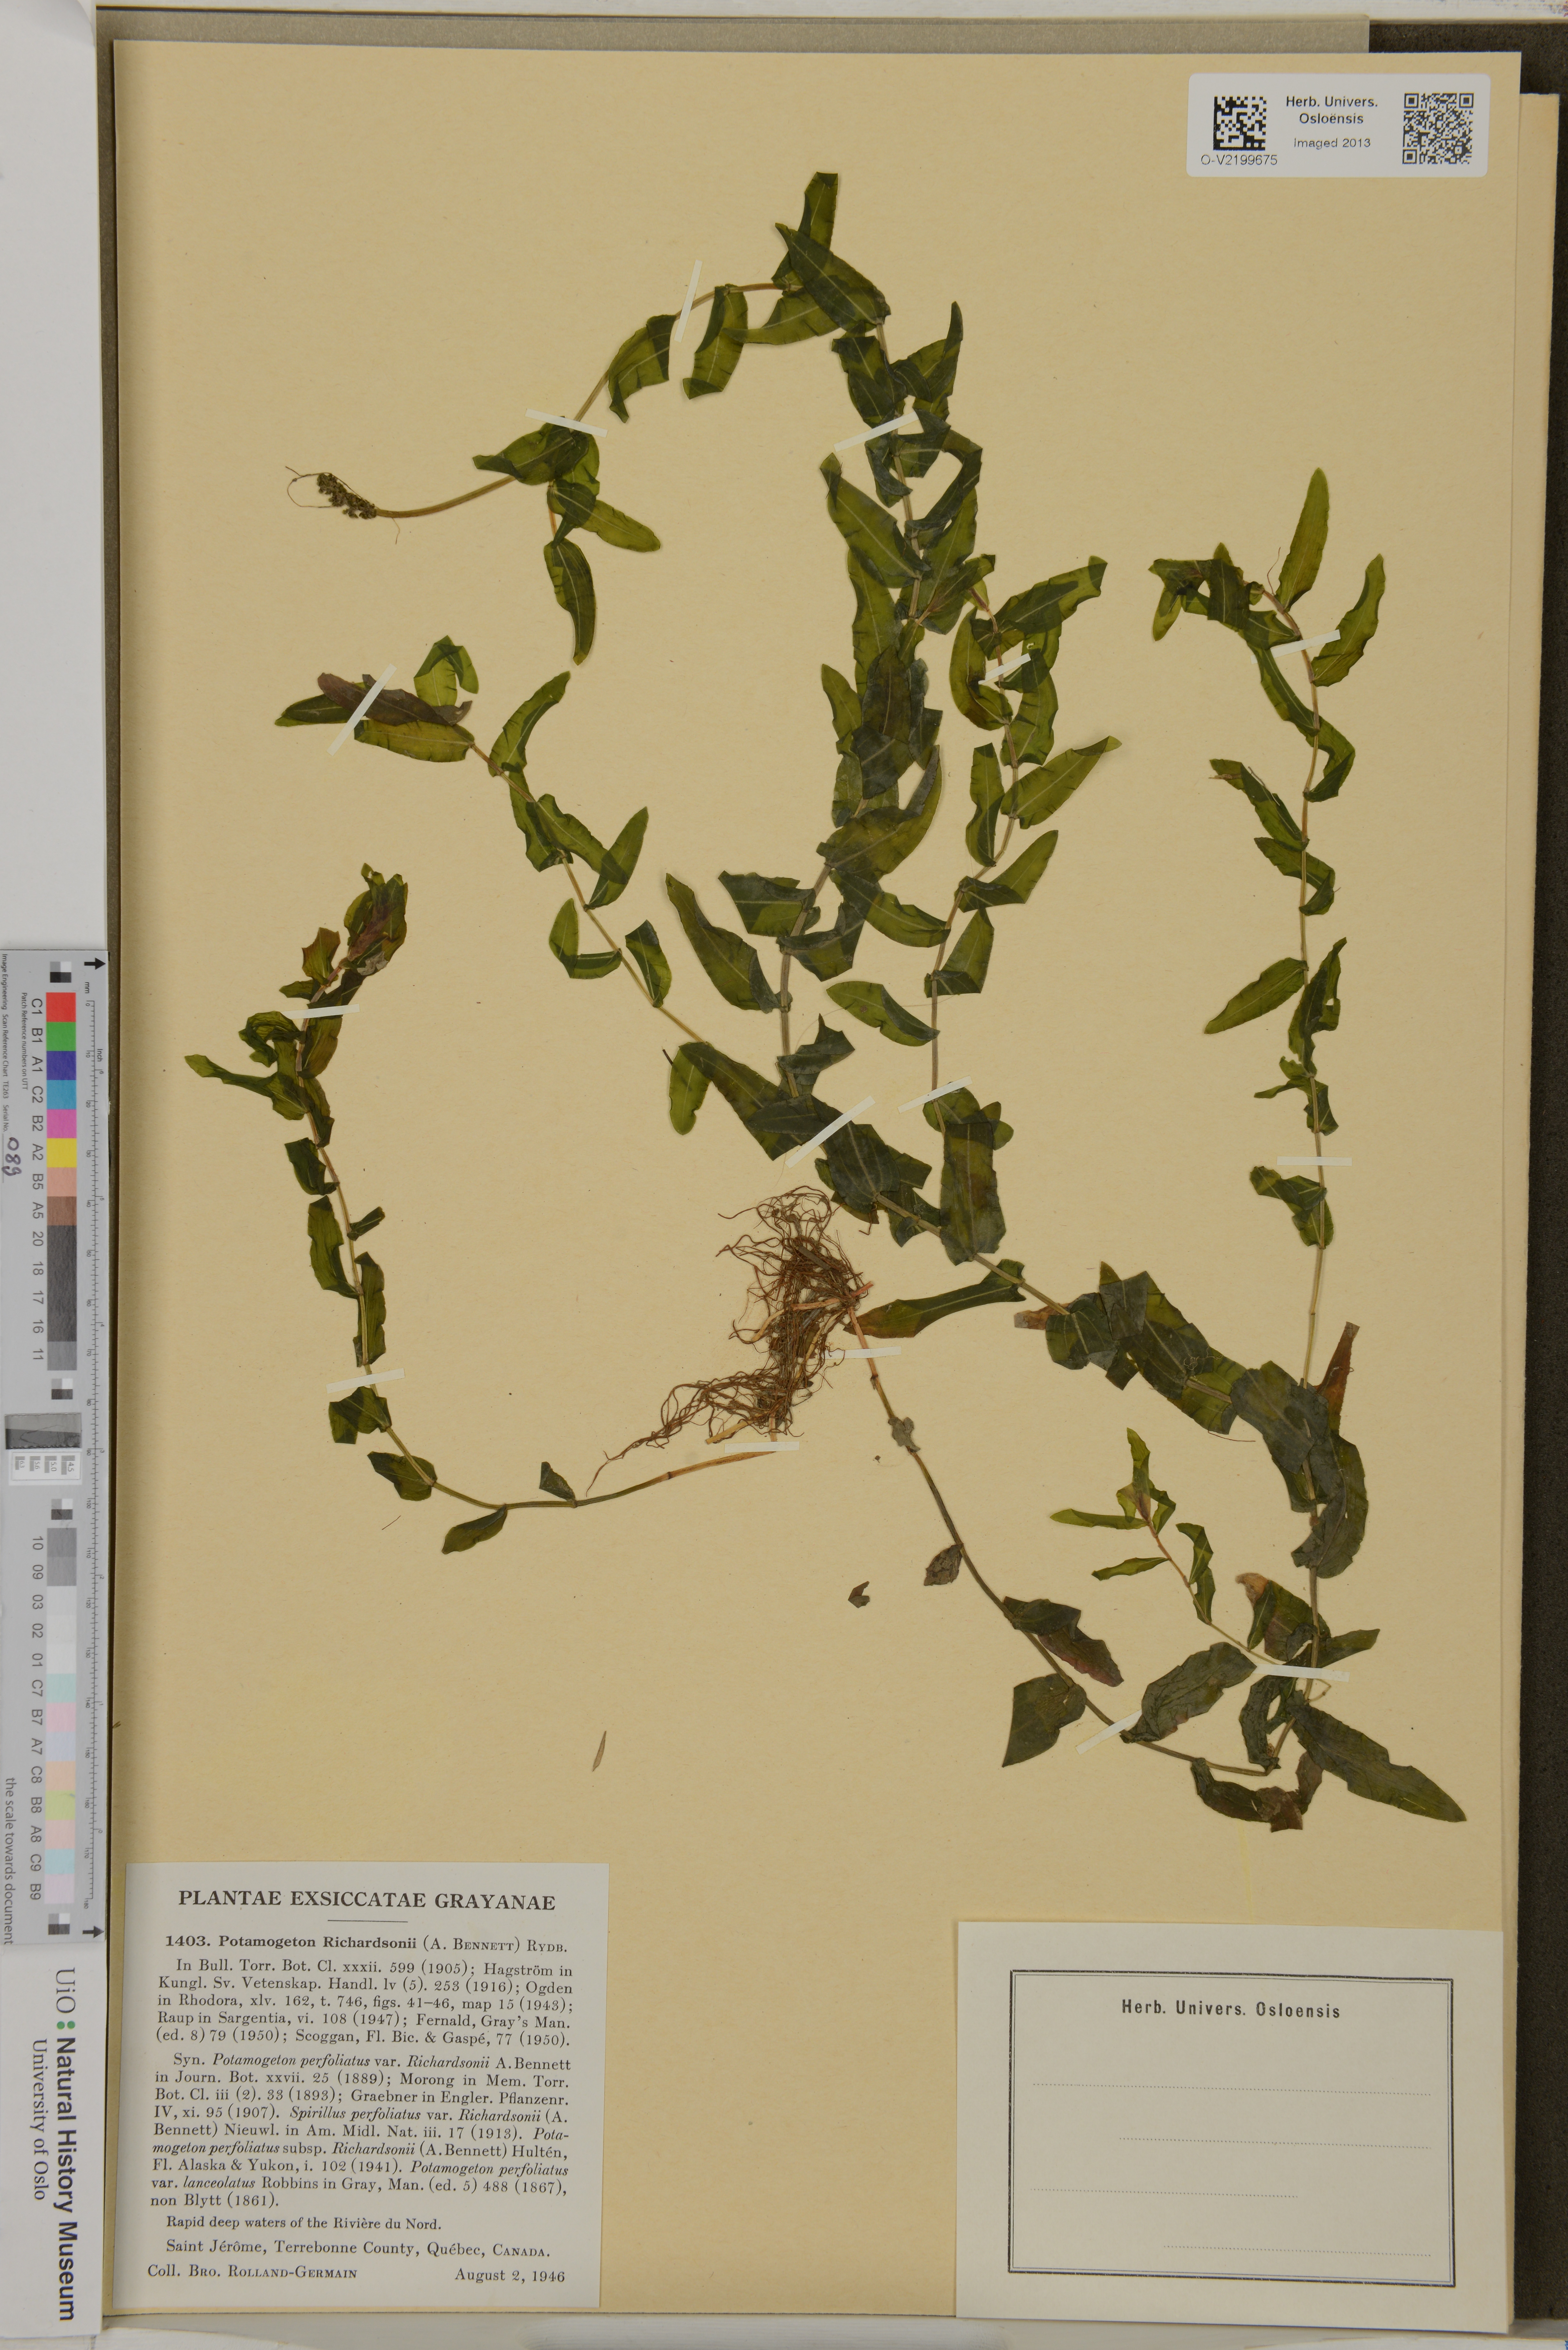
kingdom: Plantae
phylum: Tracheophyta
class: Liliopsida
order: Alismatales
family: Potamogetonaceae
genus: Potamogeton
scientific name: Potamogeton richardsonii
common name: Richardson's pondweed
